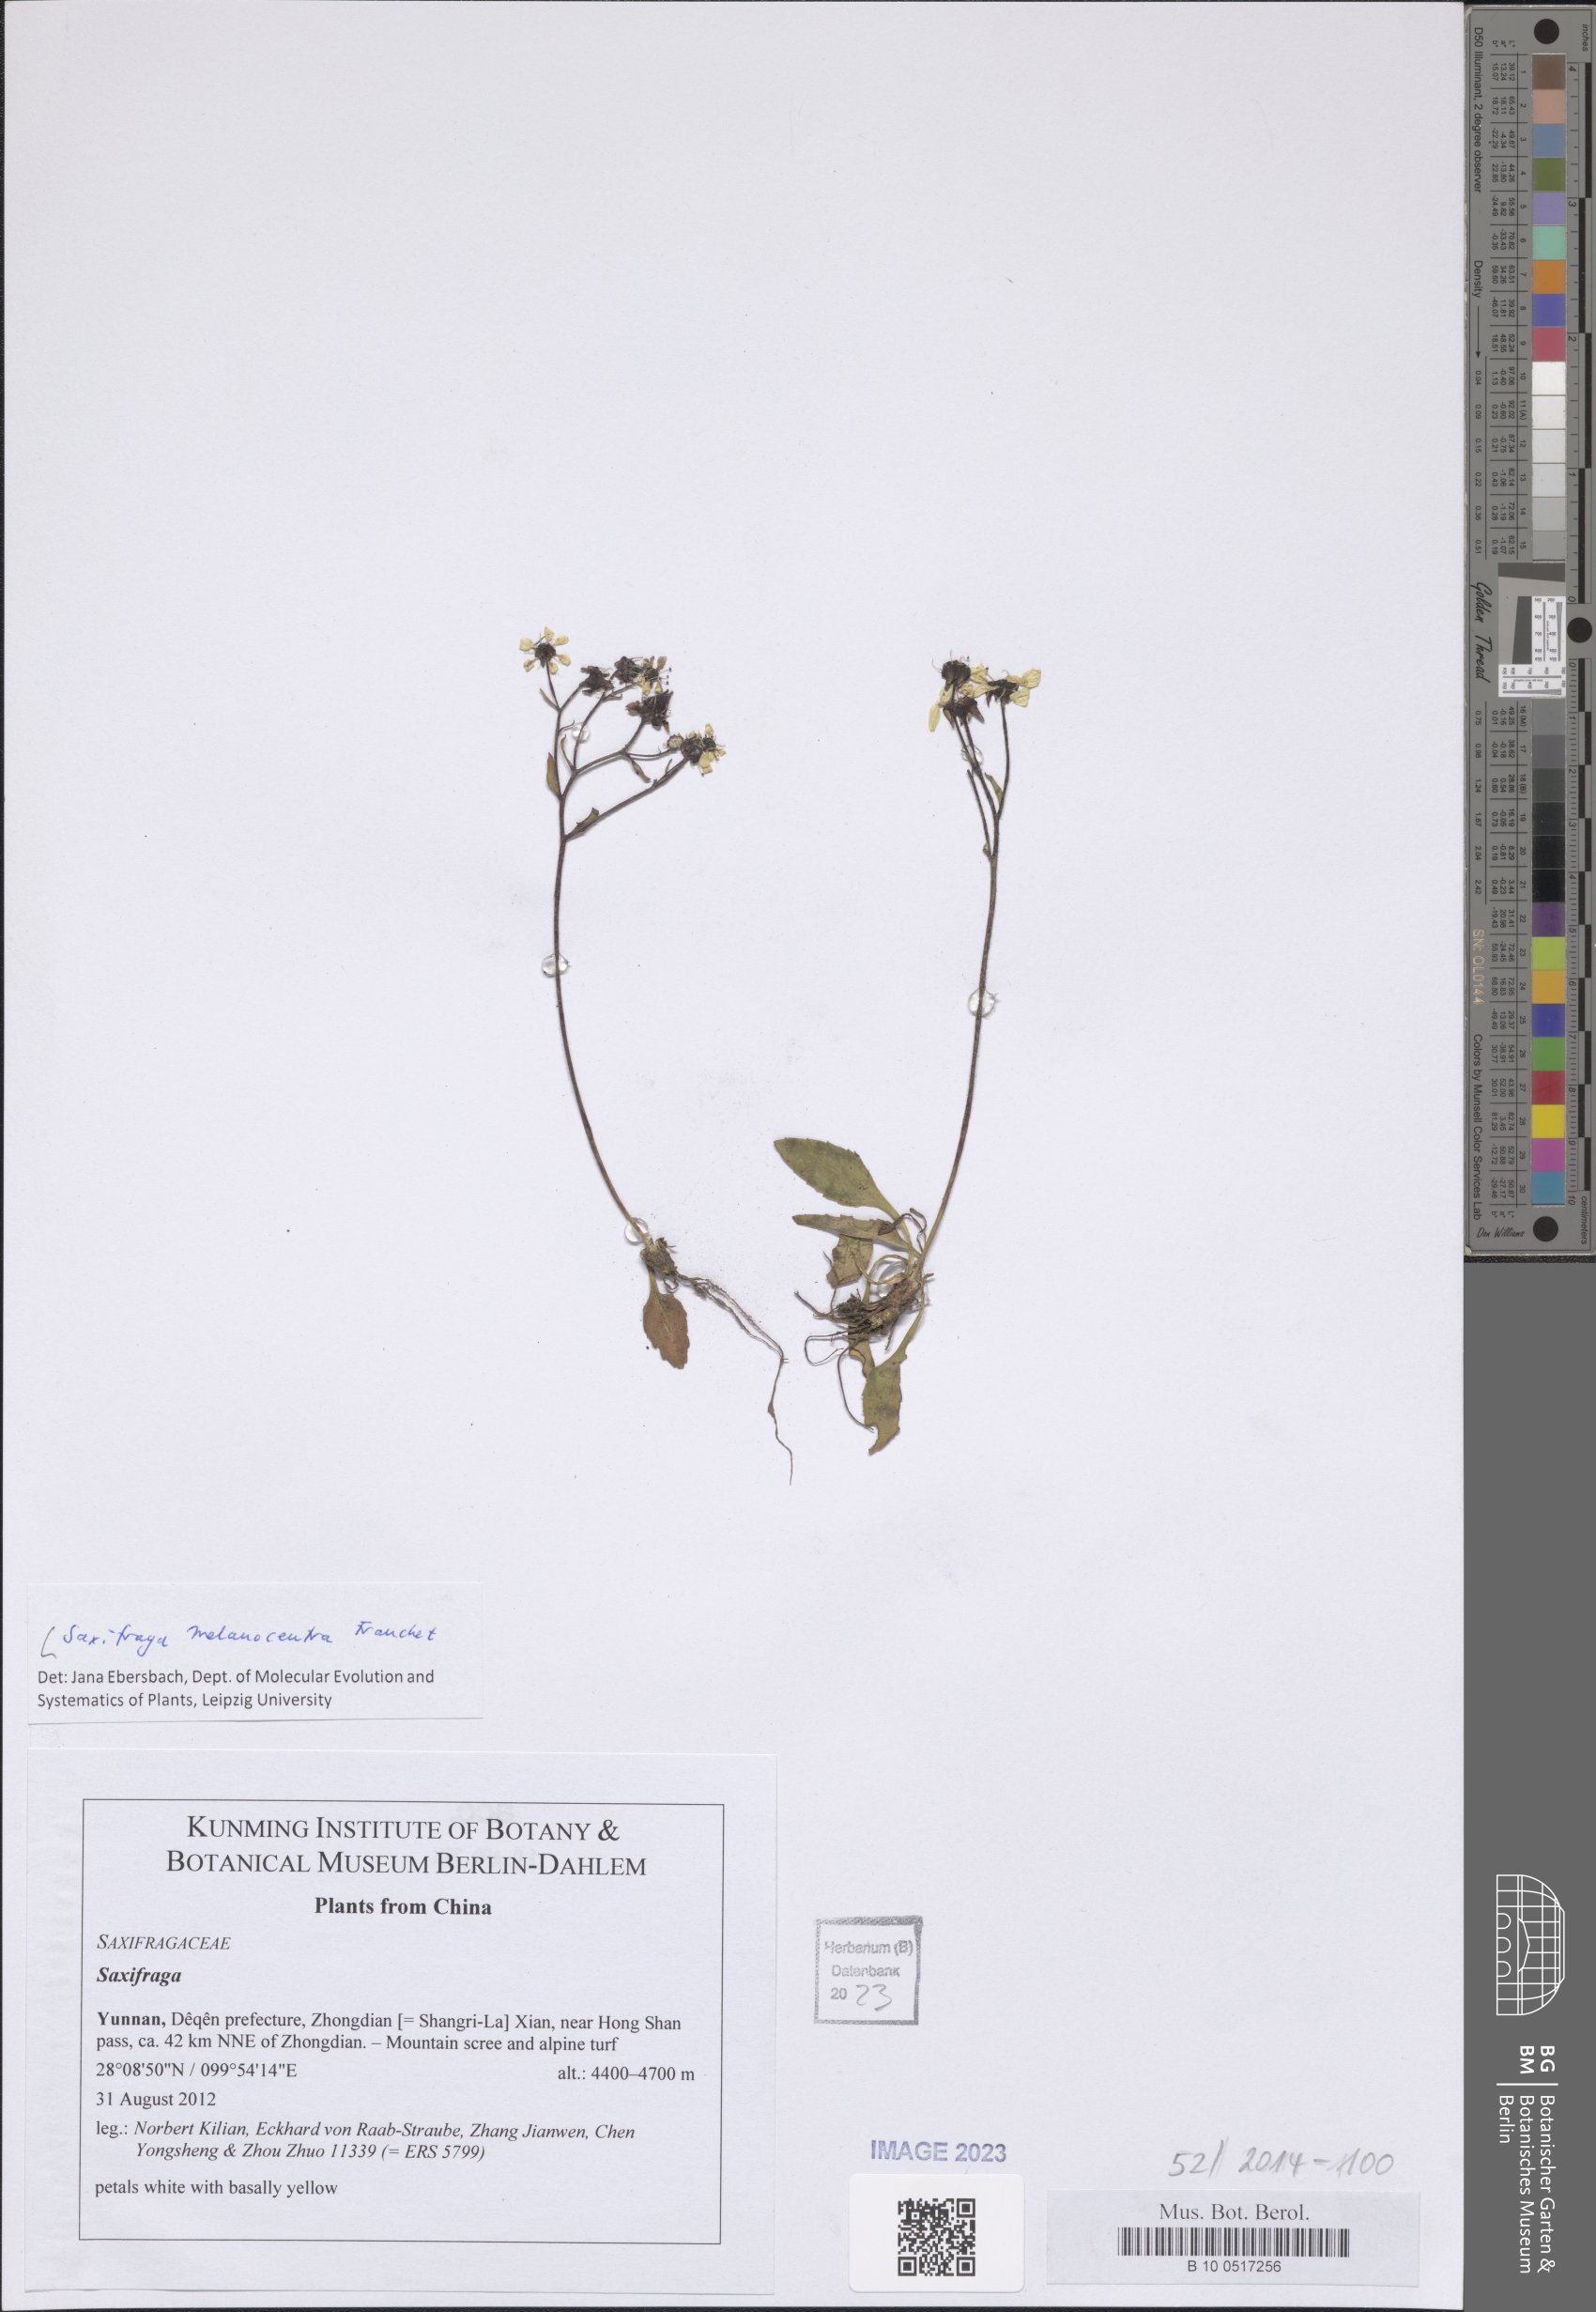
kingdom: Plantae
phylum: Tracheophyta
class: Magnoliopsida
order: Saxifragales
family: Saxifragaceae
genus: Micranthes
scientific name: Micranthes melanocentra
